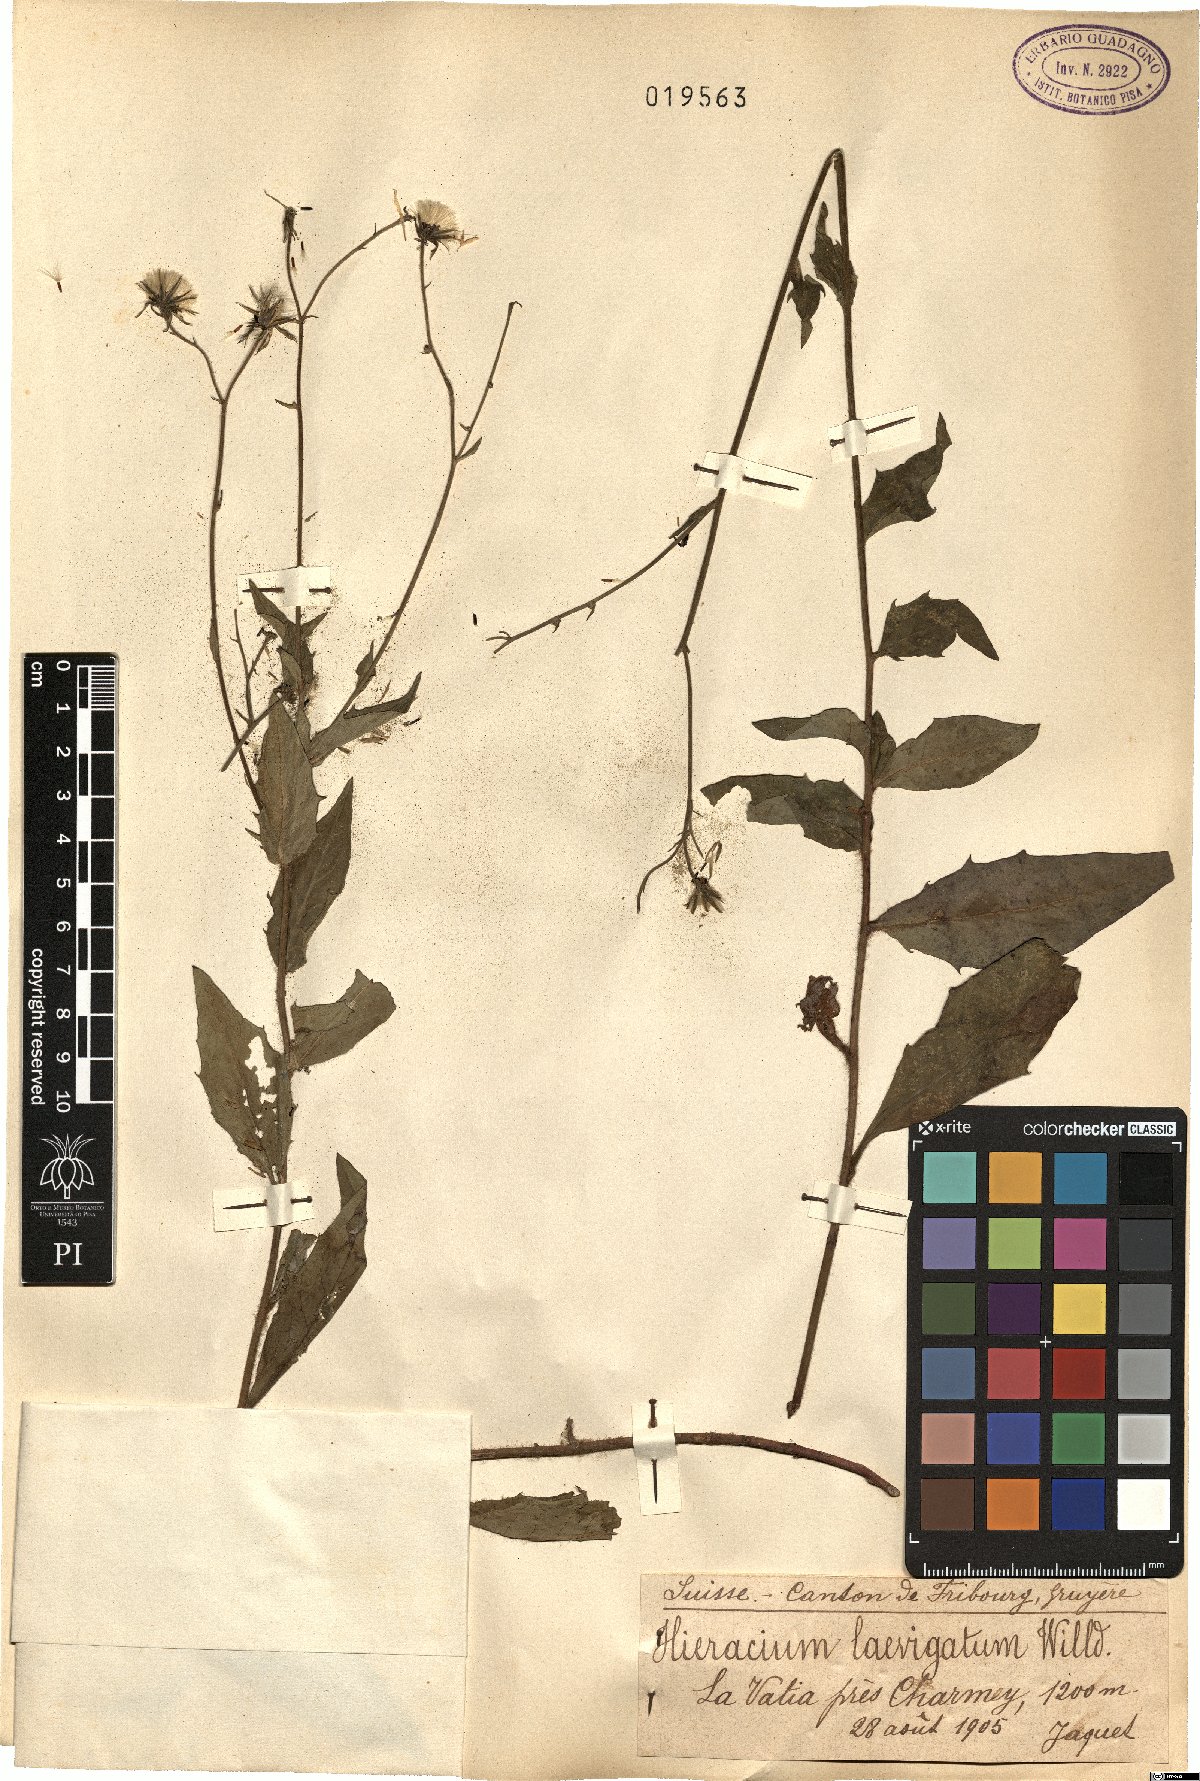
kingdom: Plantae
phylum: Tracheophyta
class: Magnoliopsida
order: Asterales
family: Asteraceae
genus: Hieracium
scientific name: Hieracium laevigatum
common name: Smooth hawkweed
